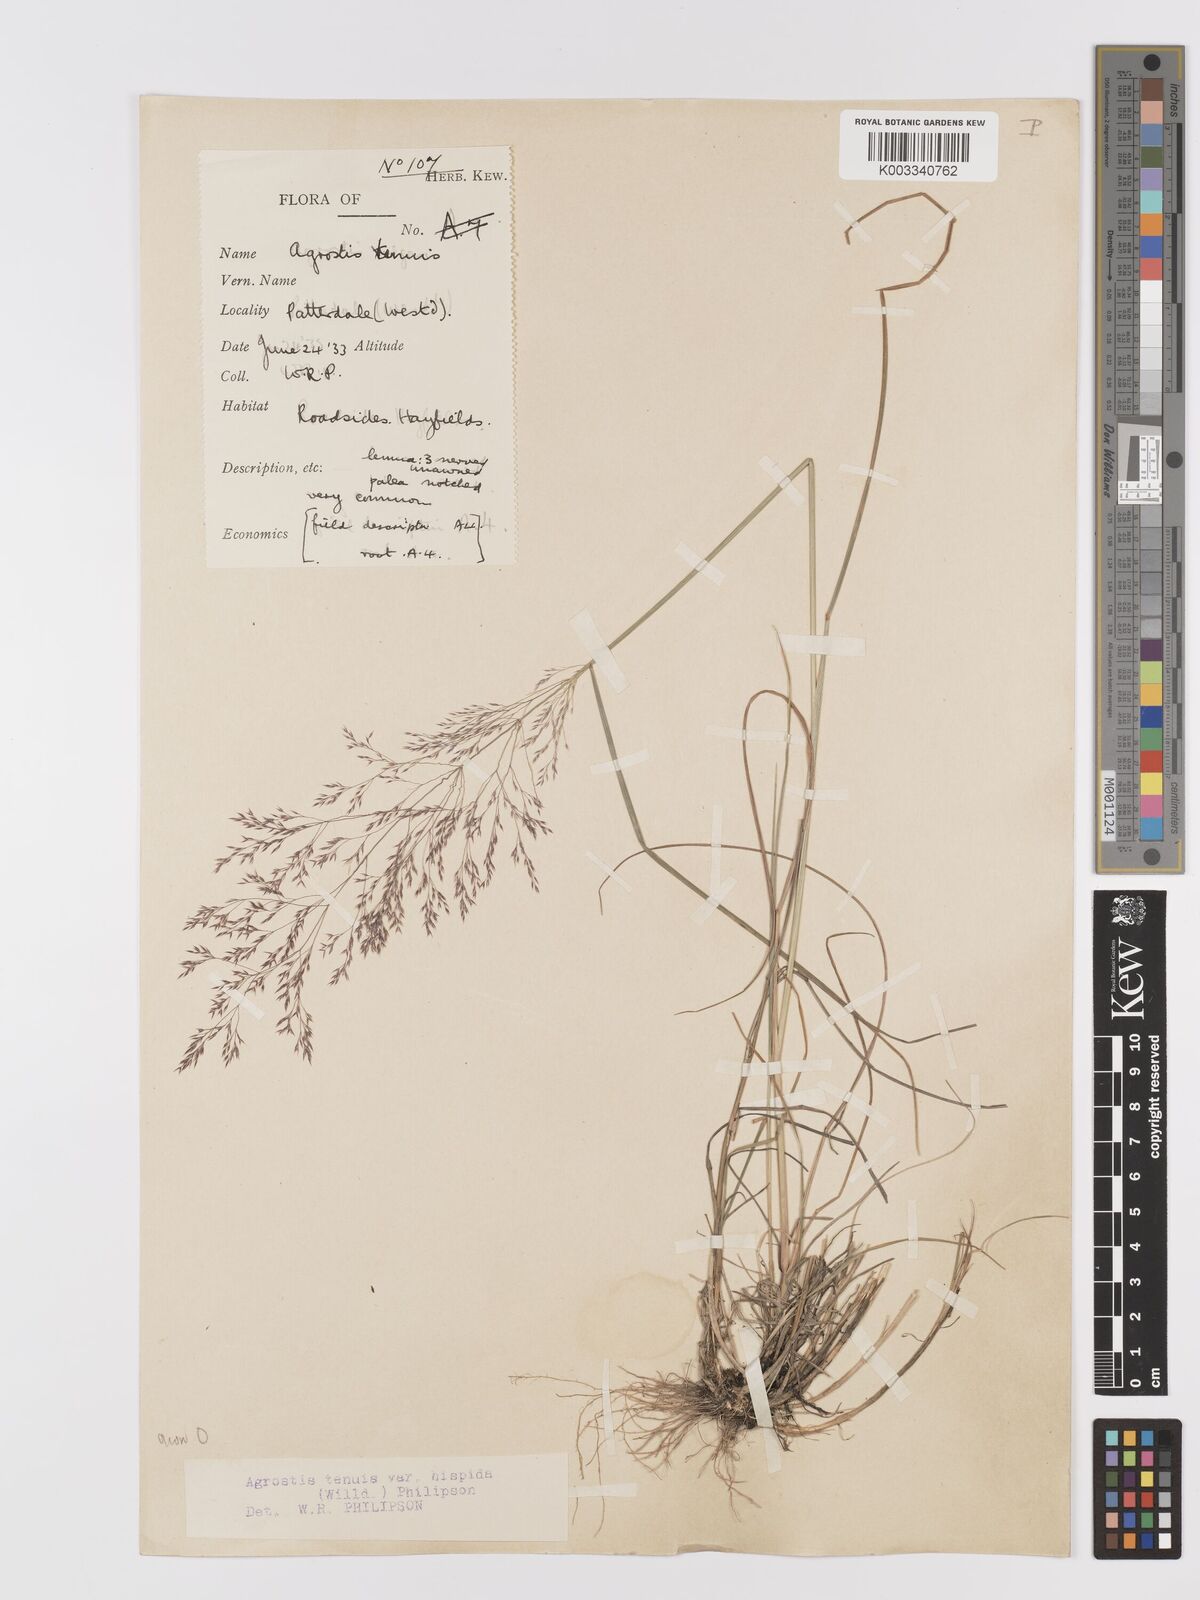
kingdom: Plantae
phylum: Tracheophyta
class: Liliopsida
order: Poales
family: Poaceae
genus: Agrostis
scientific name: Agrostis capillaris
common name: Colonial bentgrass
